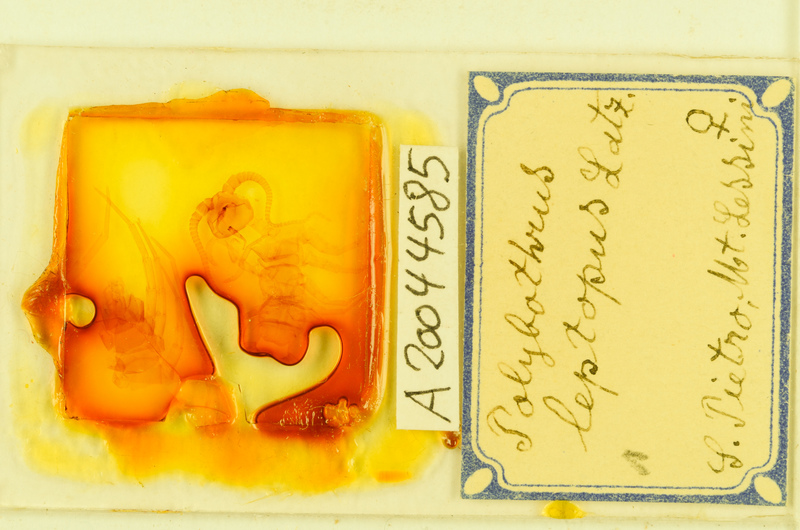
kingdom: Animalia
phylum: Arthropoda
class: Chilopoda
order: Lithobiomorpha
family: Lithobiidae
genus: Polybothrus
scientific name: Polybothrus leptopus
